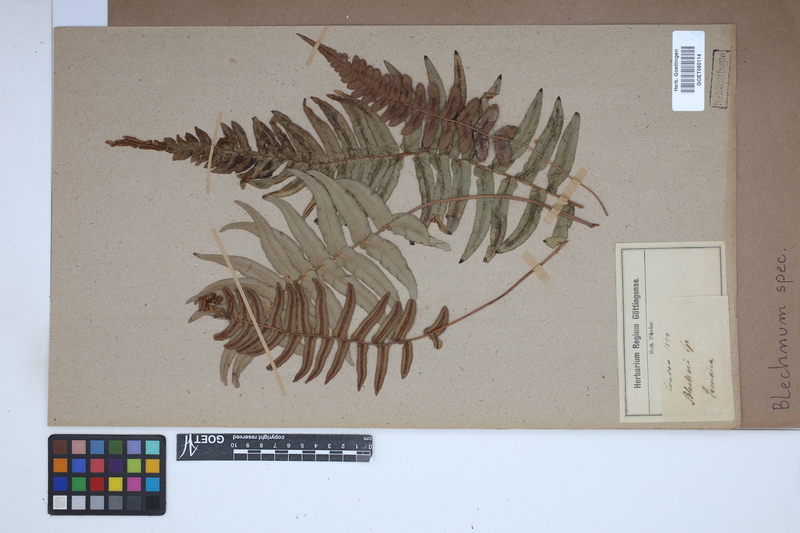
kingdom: Plantae
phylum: Tracheophyta
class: Polypodiopsida
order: Polypodiales
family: Blechnaceae
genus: Blechnum
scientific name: Blechnum
